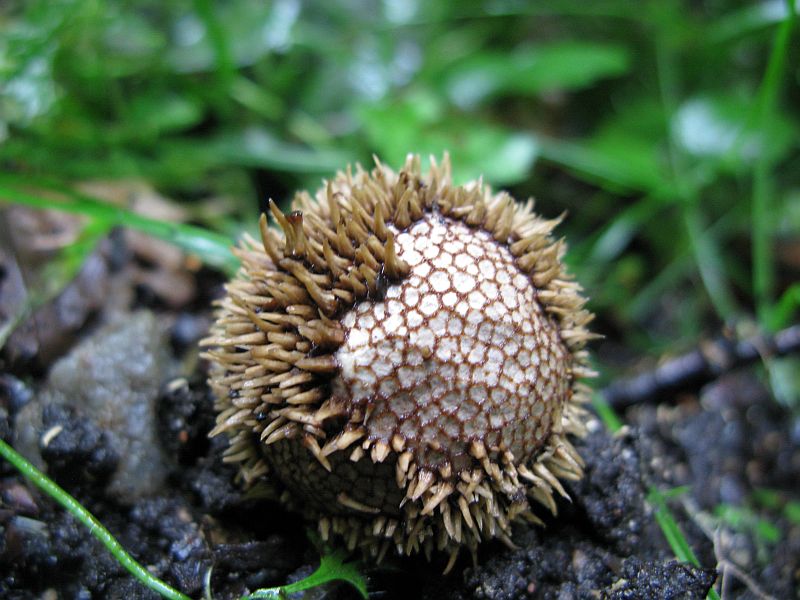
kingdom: Fungi
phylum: Basidiomycota
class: Agaricomycetes
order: Agaricales
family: Lycoperdaceae
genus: Lycoperdon
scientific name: Lycoperdon echinatum
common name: pindsvine-støvbold
